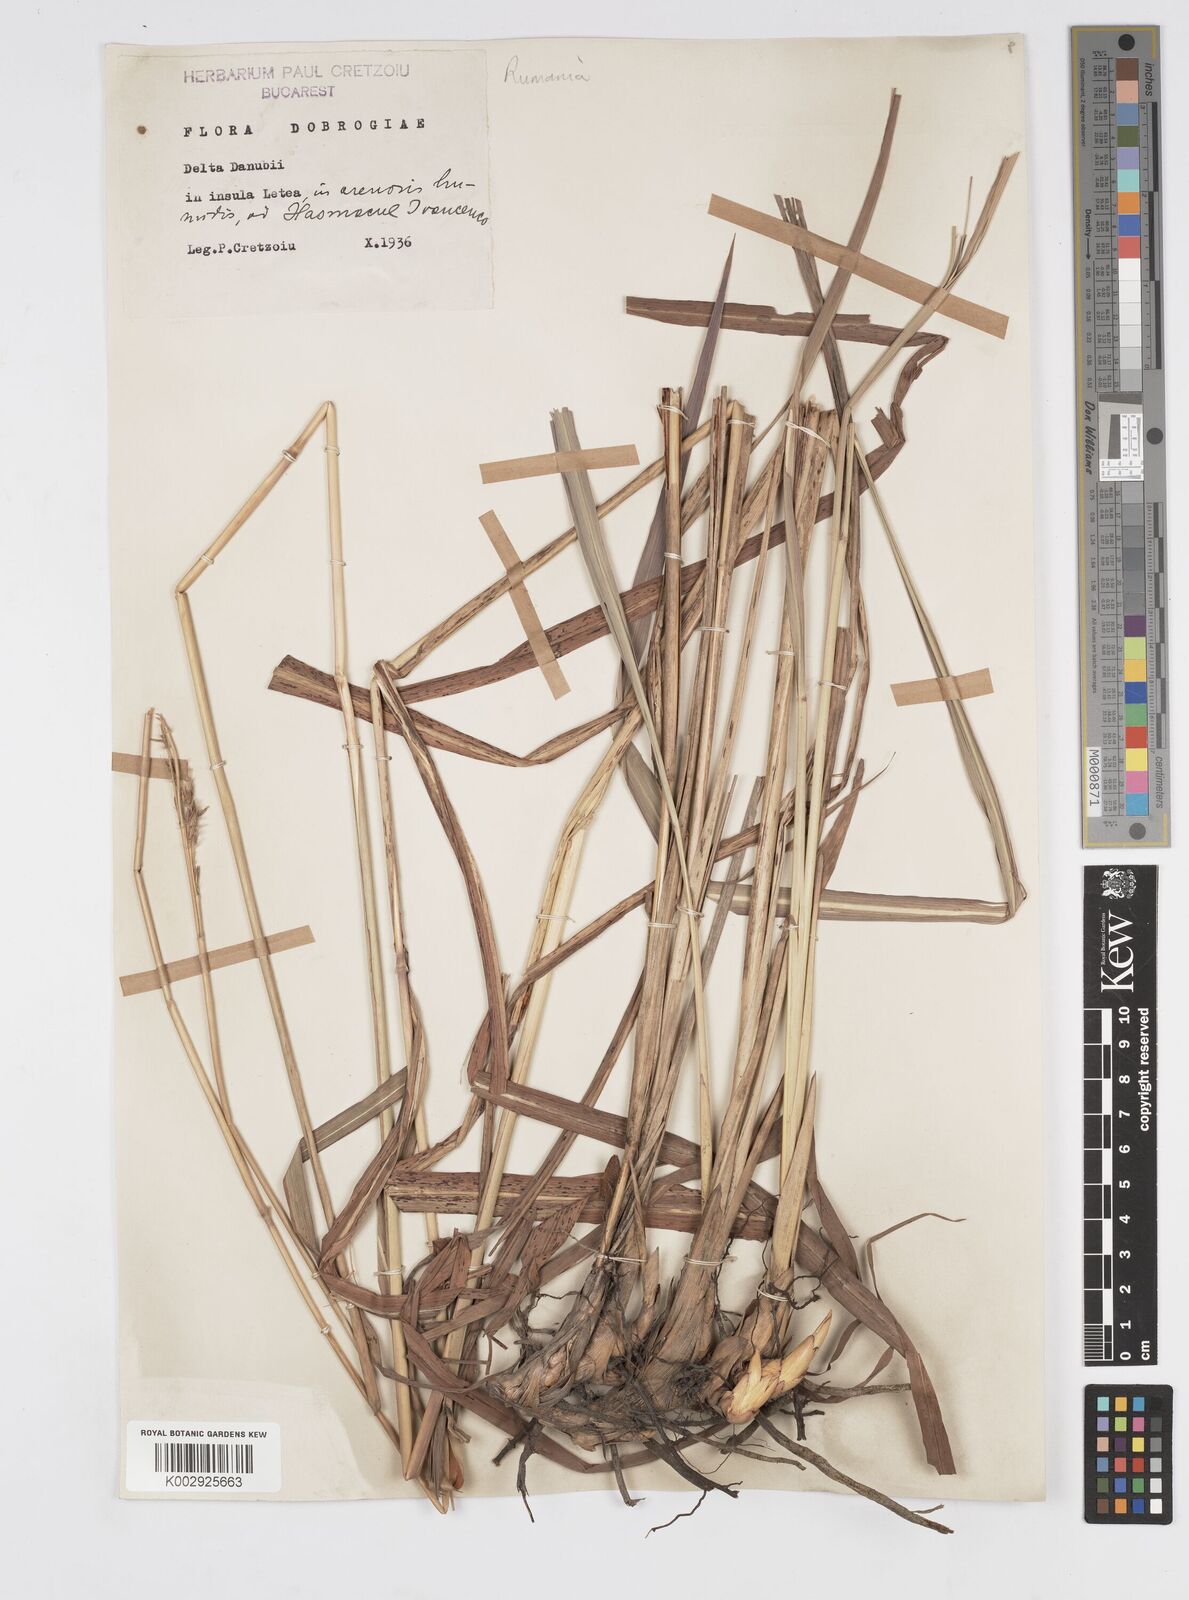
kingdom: Plantae
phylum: Tracheophyta
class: Liliopsida
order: Poales
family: Poaceae
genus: Tripidium
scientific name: Tripidium strictum
